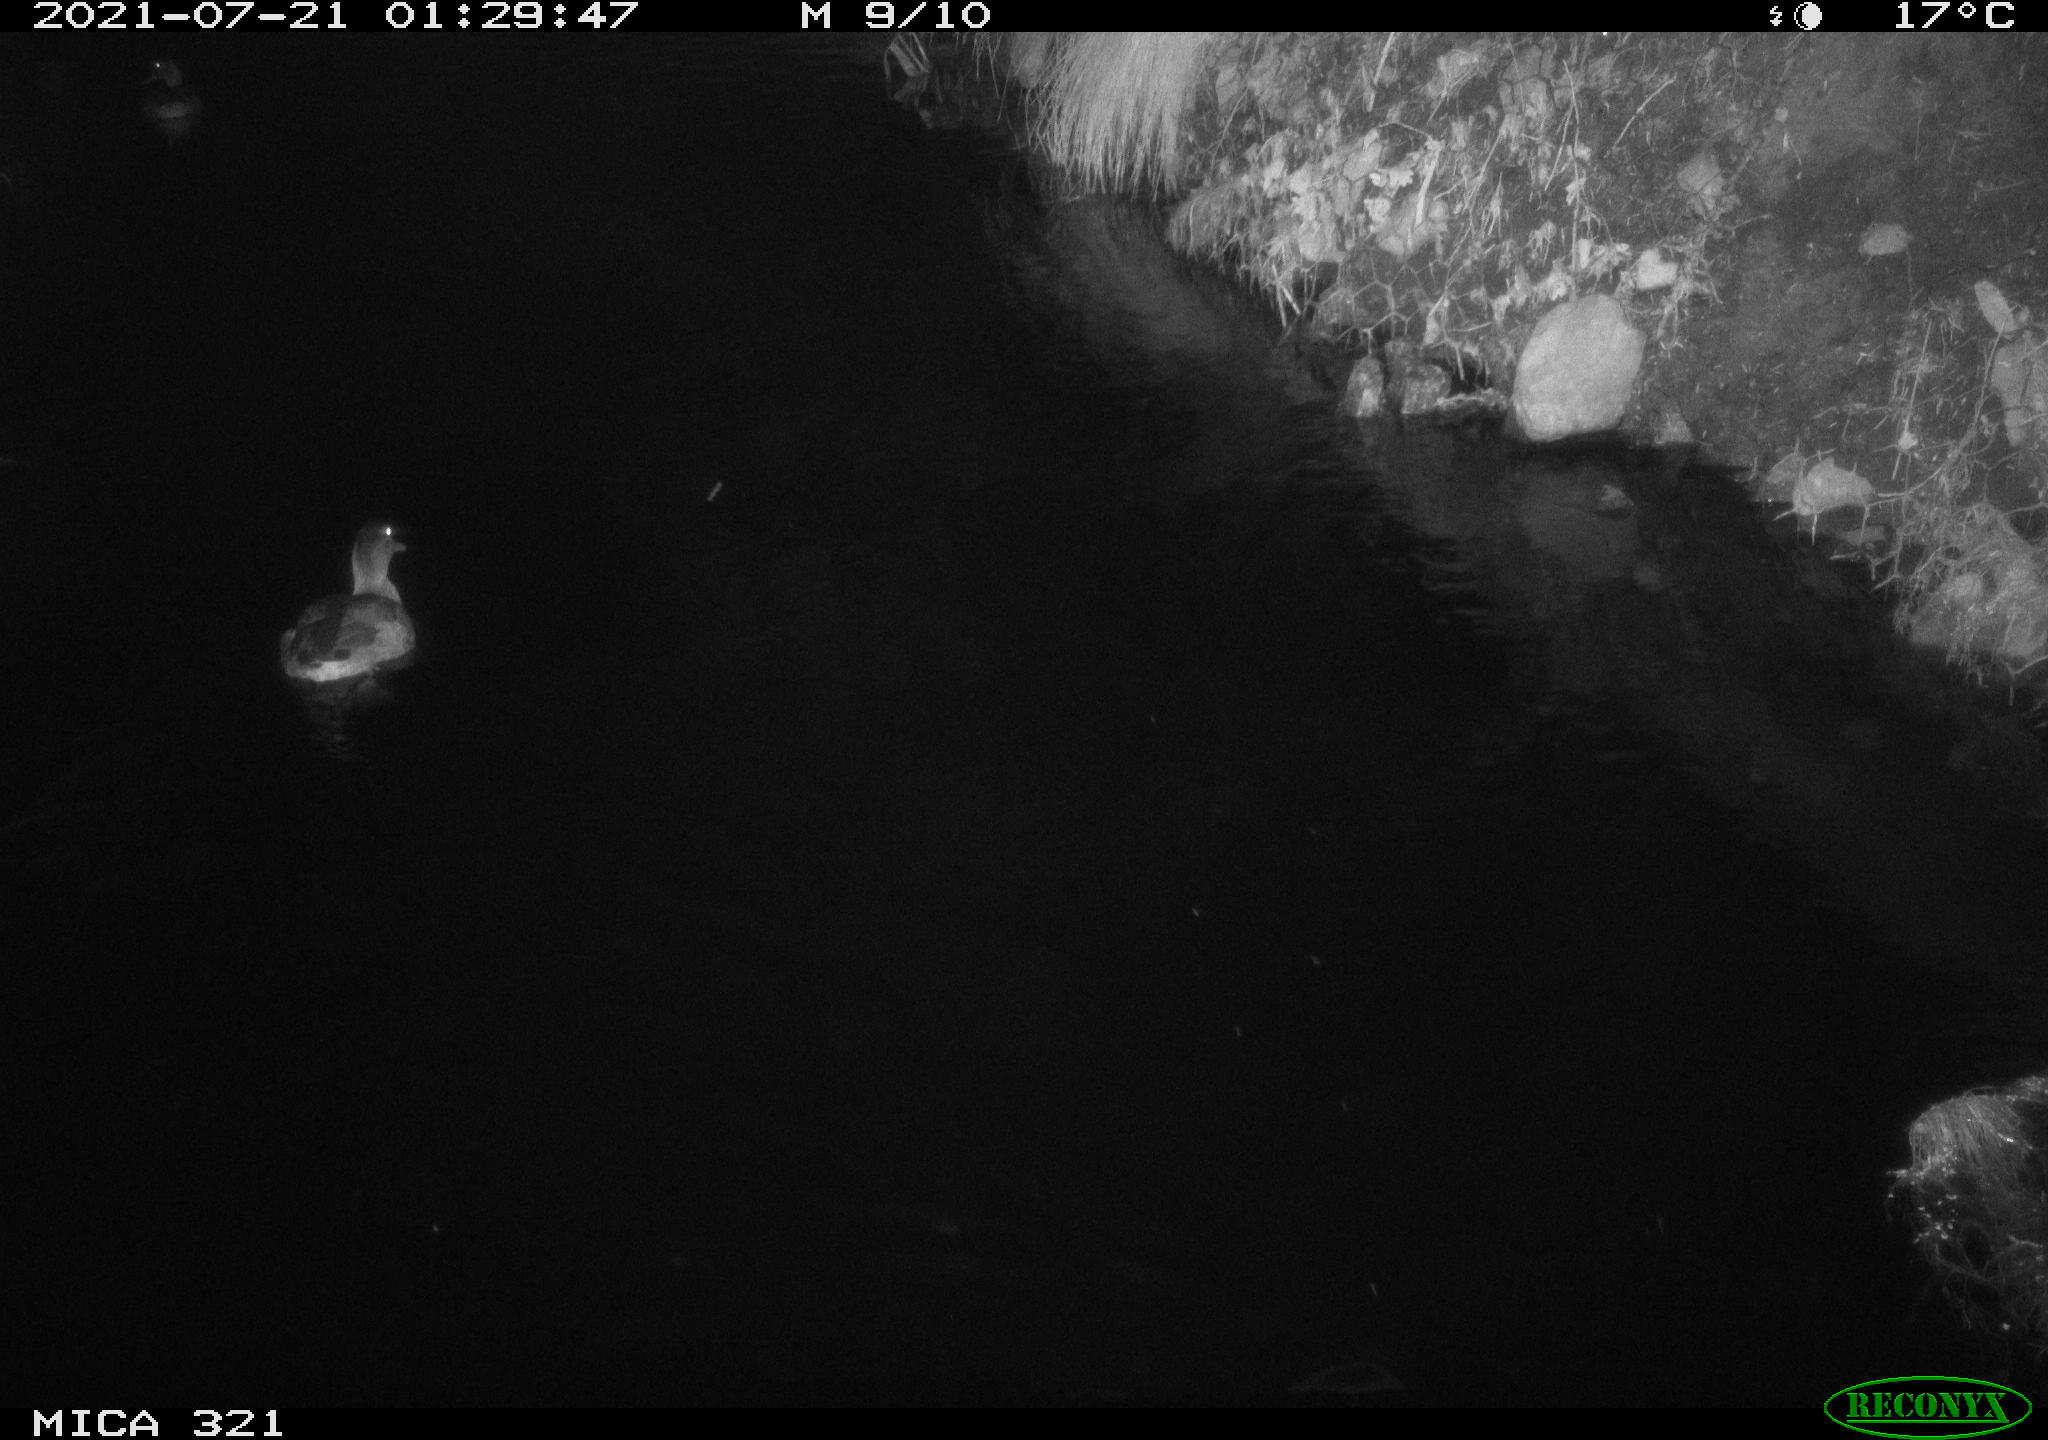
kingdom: Animalia
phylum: Chordata
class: Aves
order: Anseriformes
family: Anatidae
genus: Anas
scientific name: Anas platyrhynchos
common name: Mallard
